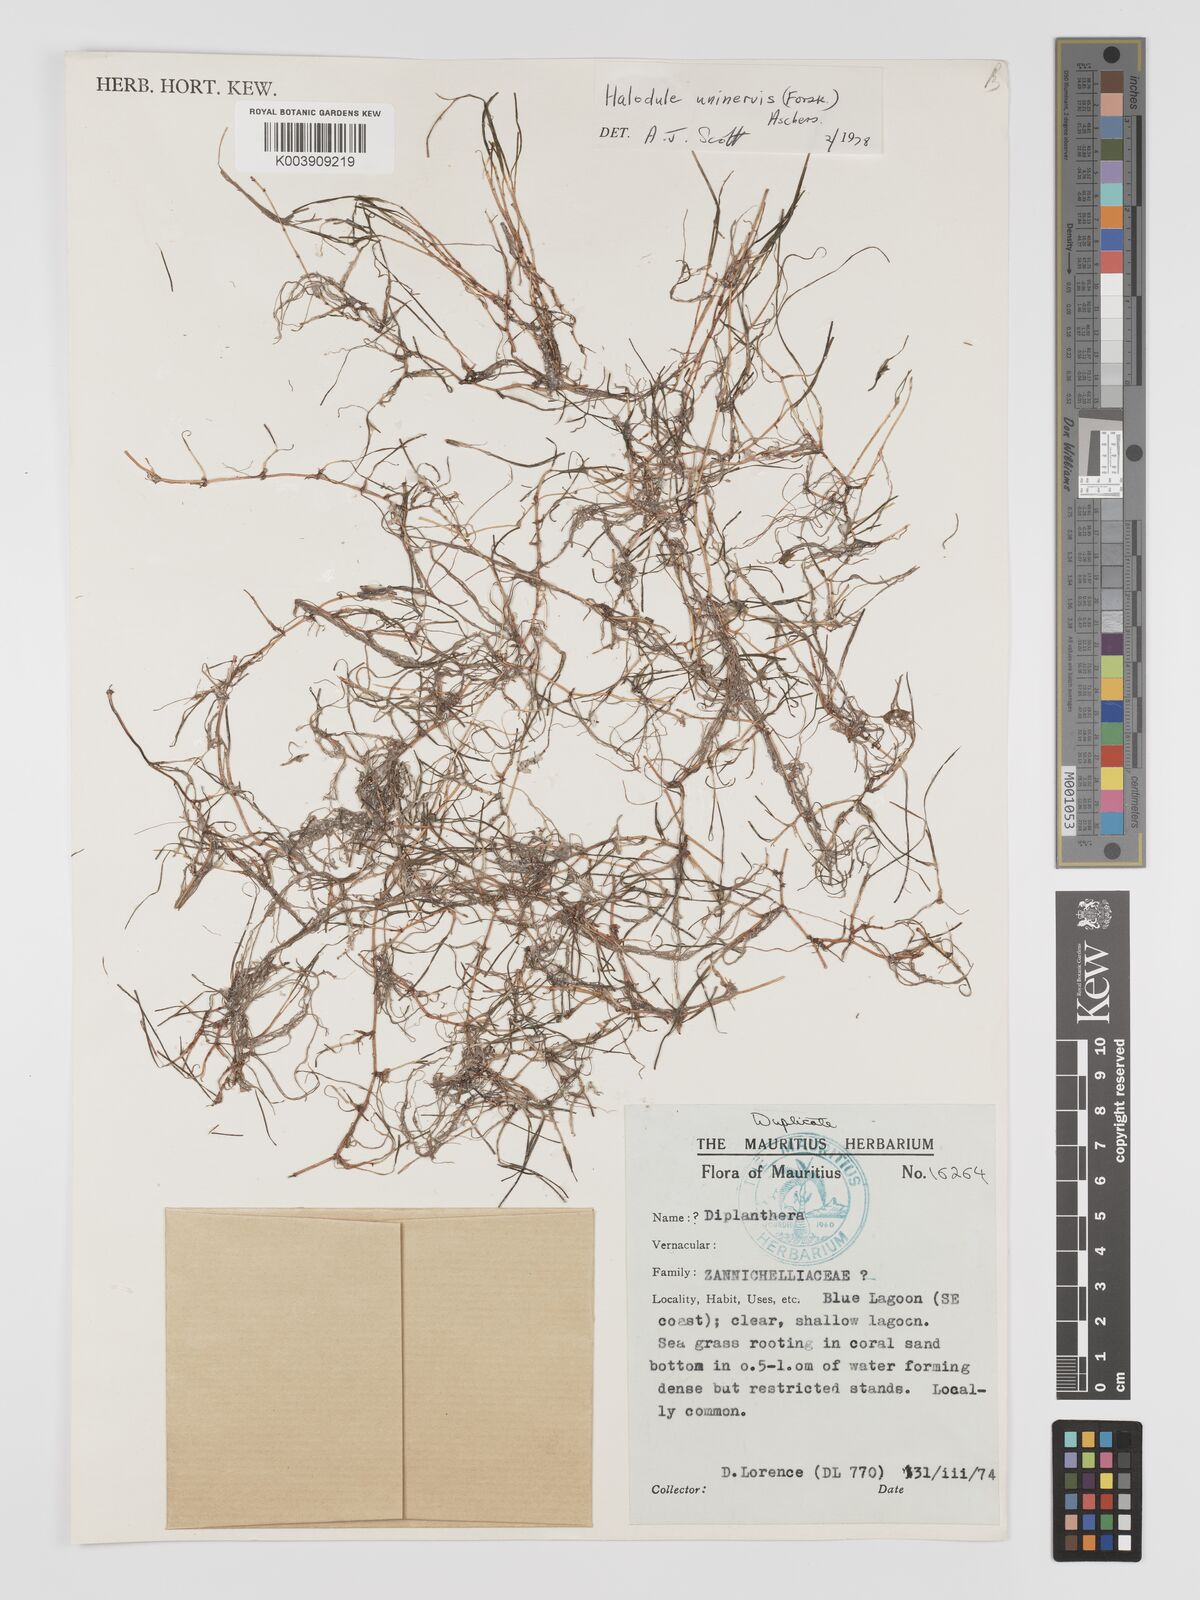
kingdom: Plantae
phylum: Tracheophyta
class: Liliopsida
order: Alismatales
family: Cymodoceaceae
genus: Halodule
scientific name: Halodule uninervis
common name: Narrowleaf seagrass
